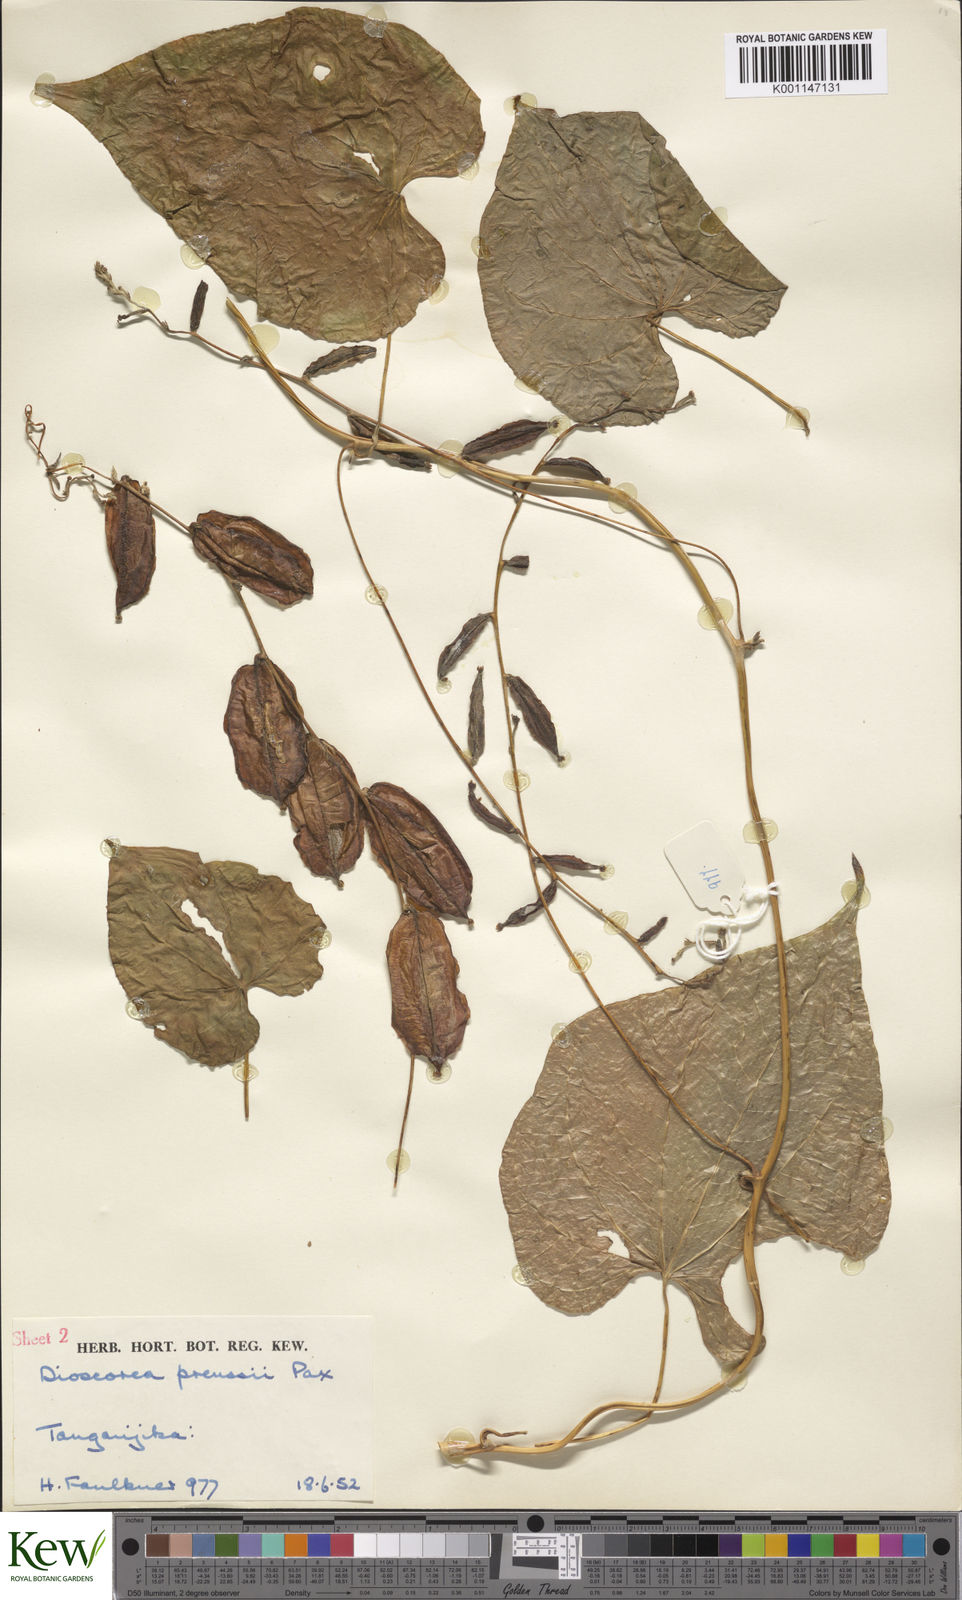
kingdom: Plantae
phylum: Tracheophyta
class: Liliopsida
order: Dioscoreales
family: Dioscoreaceae
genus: Dioscorea
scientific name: Dioscorea
